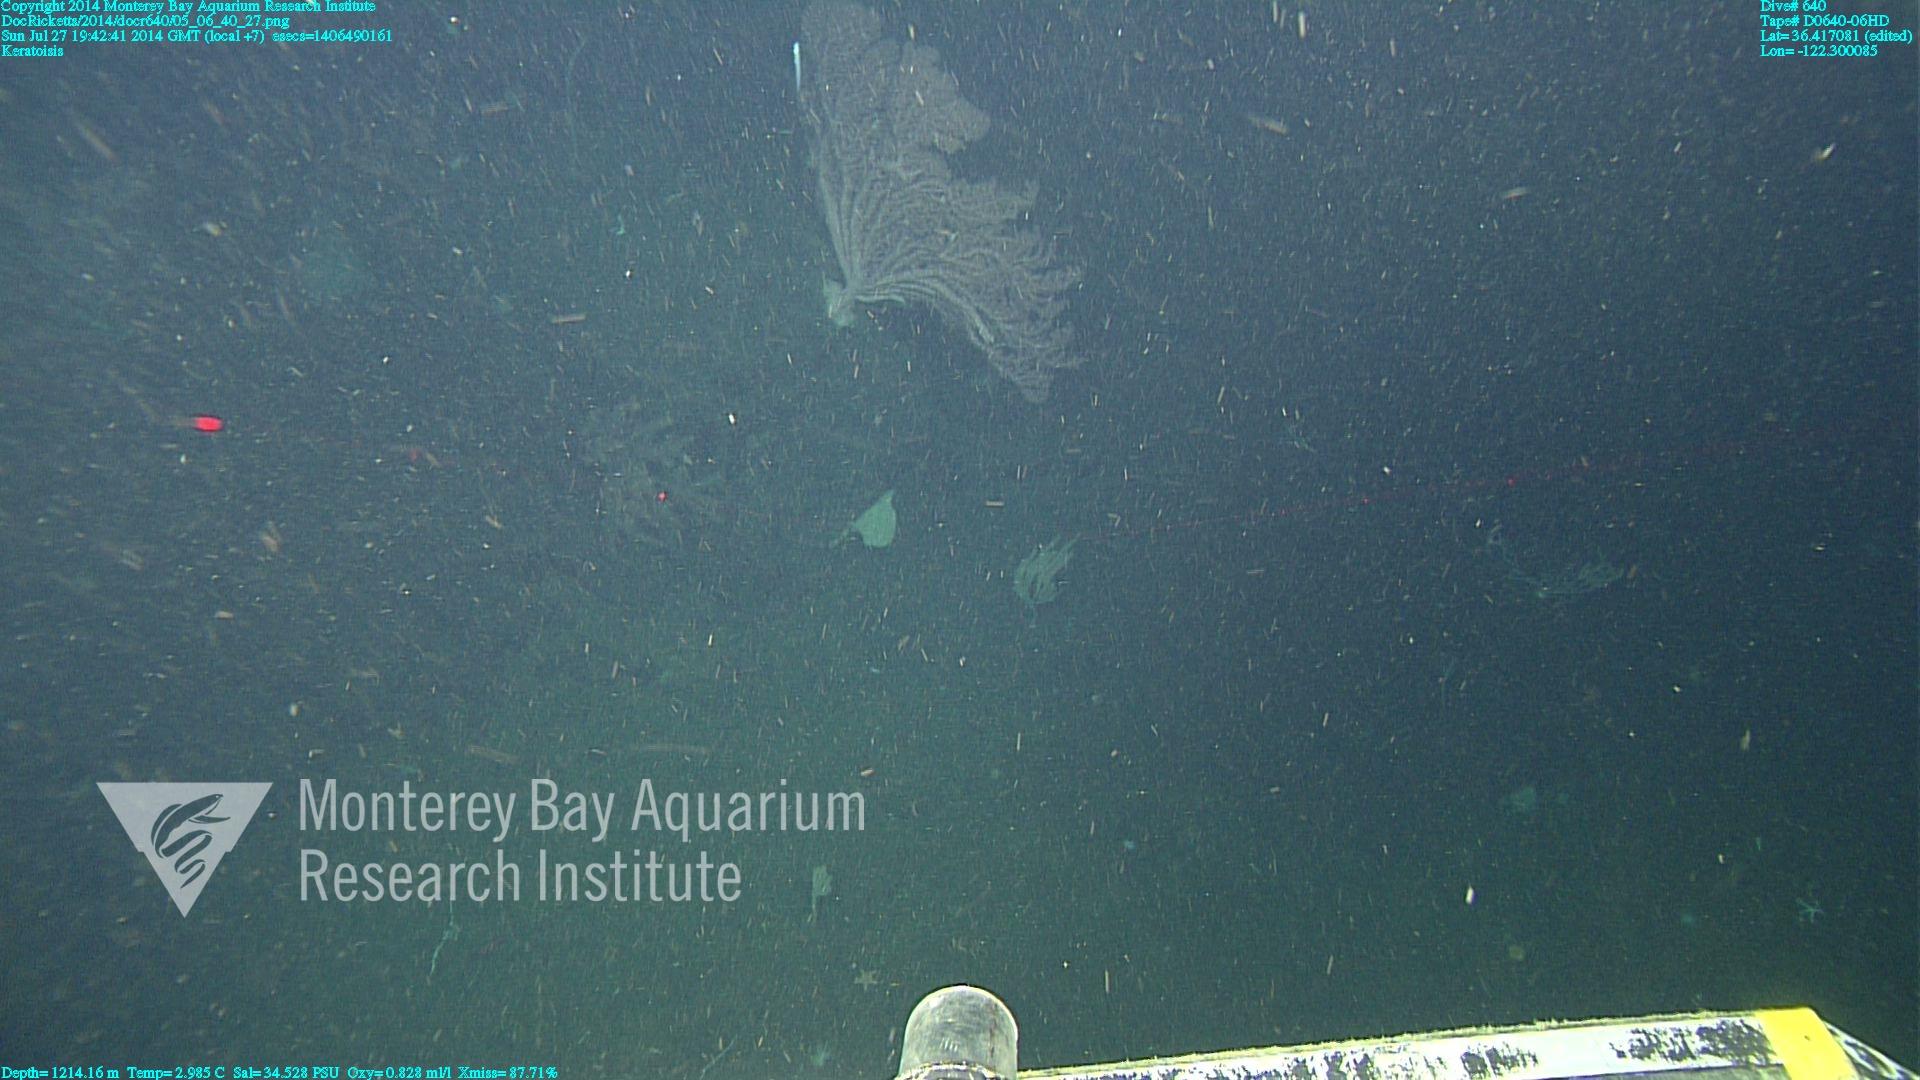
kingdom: Animalia
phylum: Cnidaria
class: Anthozoa
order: Scleralcyonacea
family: Keratoisididae
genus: Keratoisis
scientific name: Keratoisis
